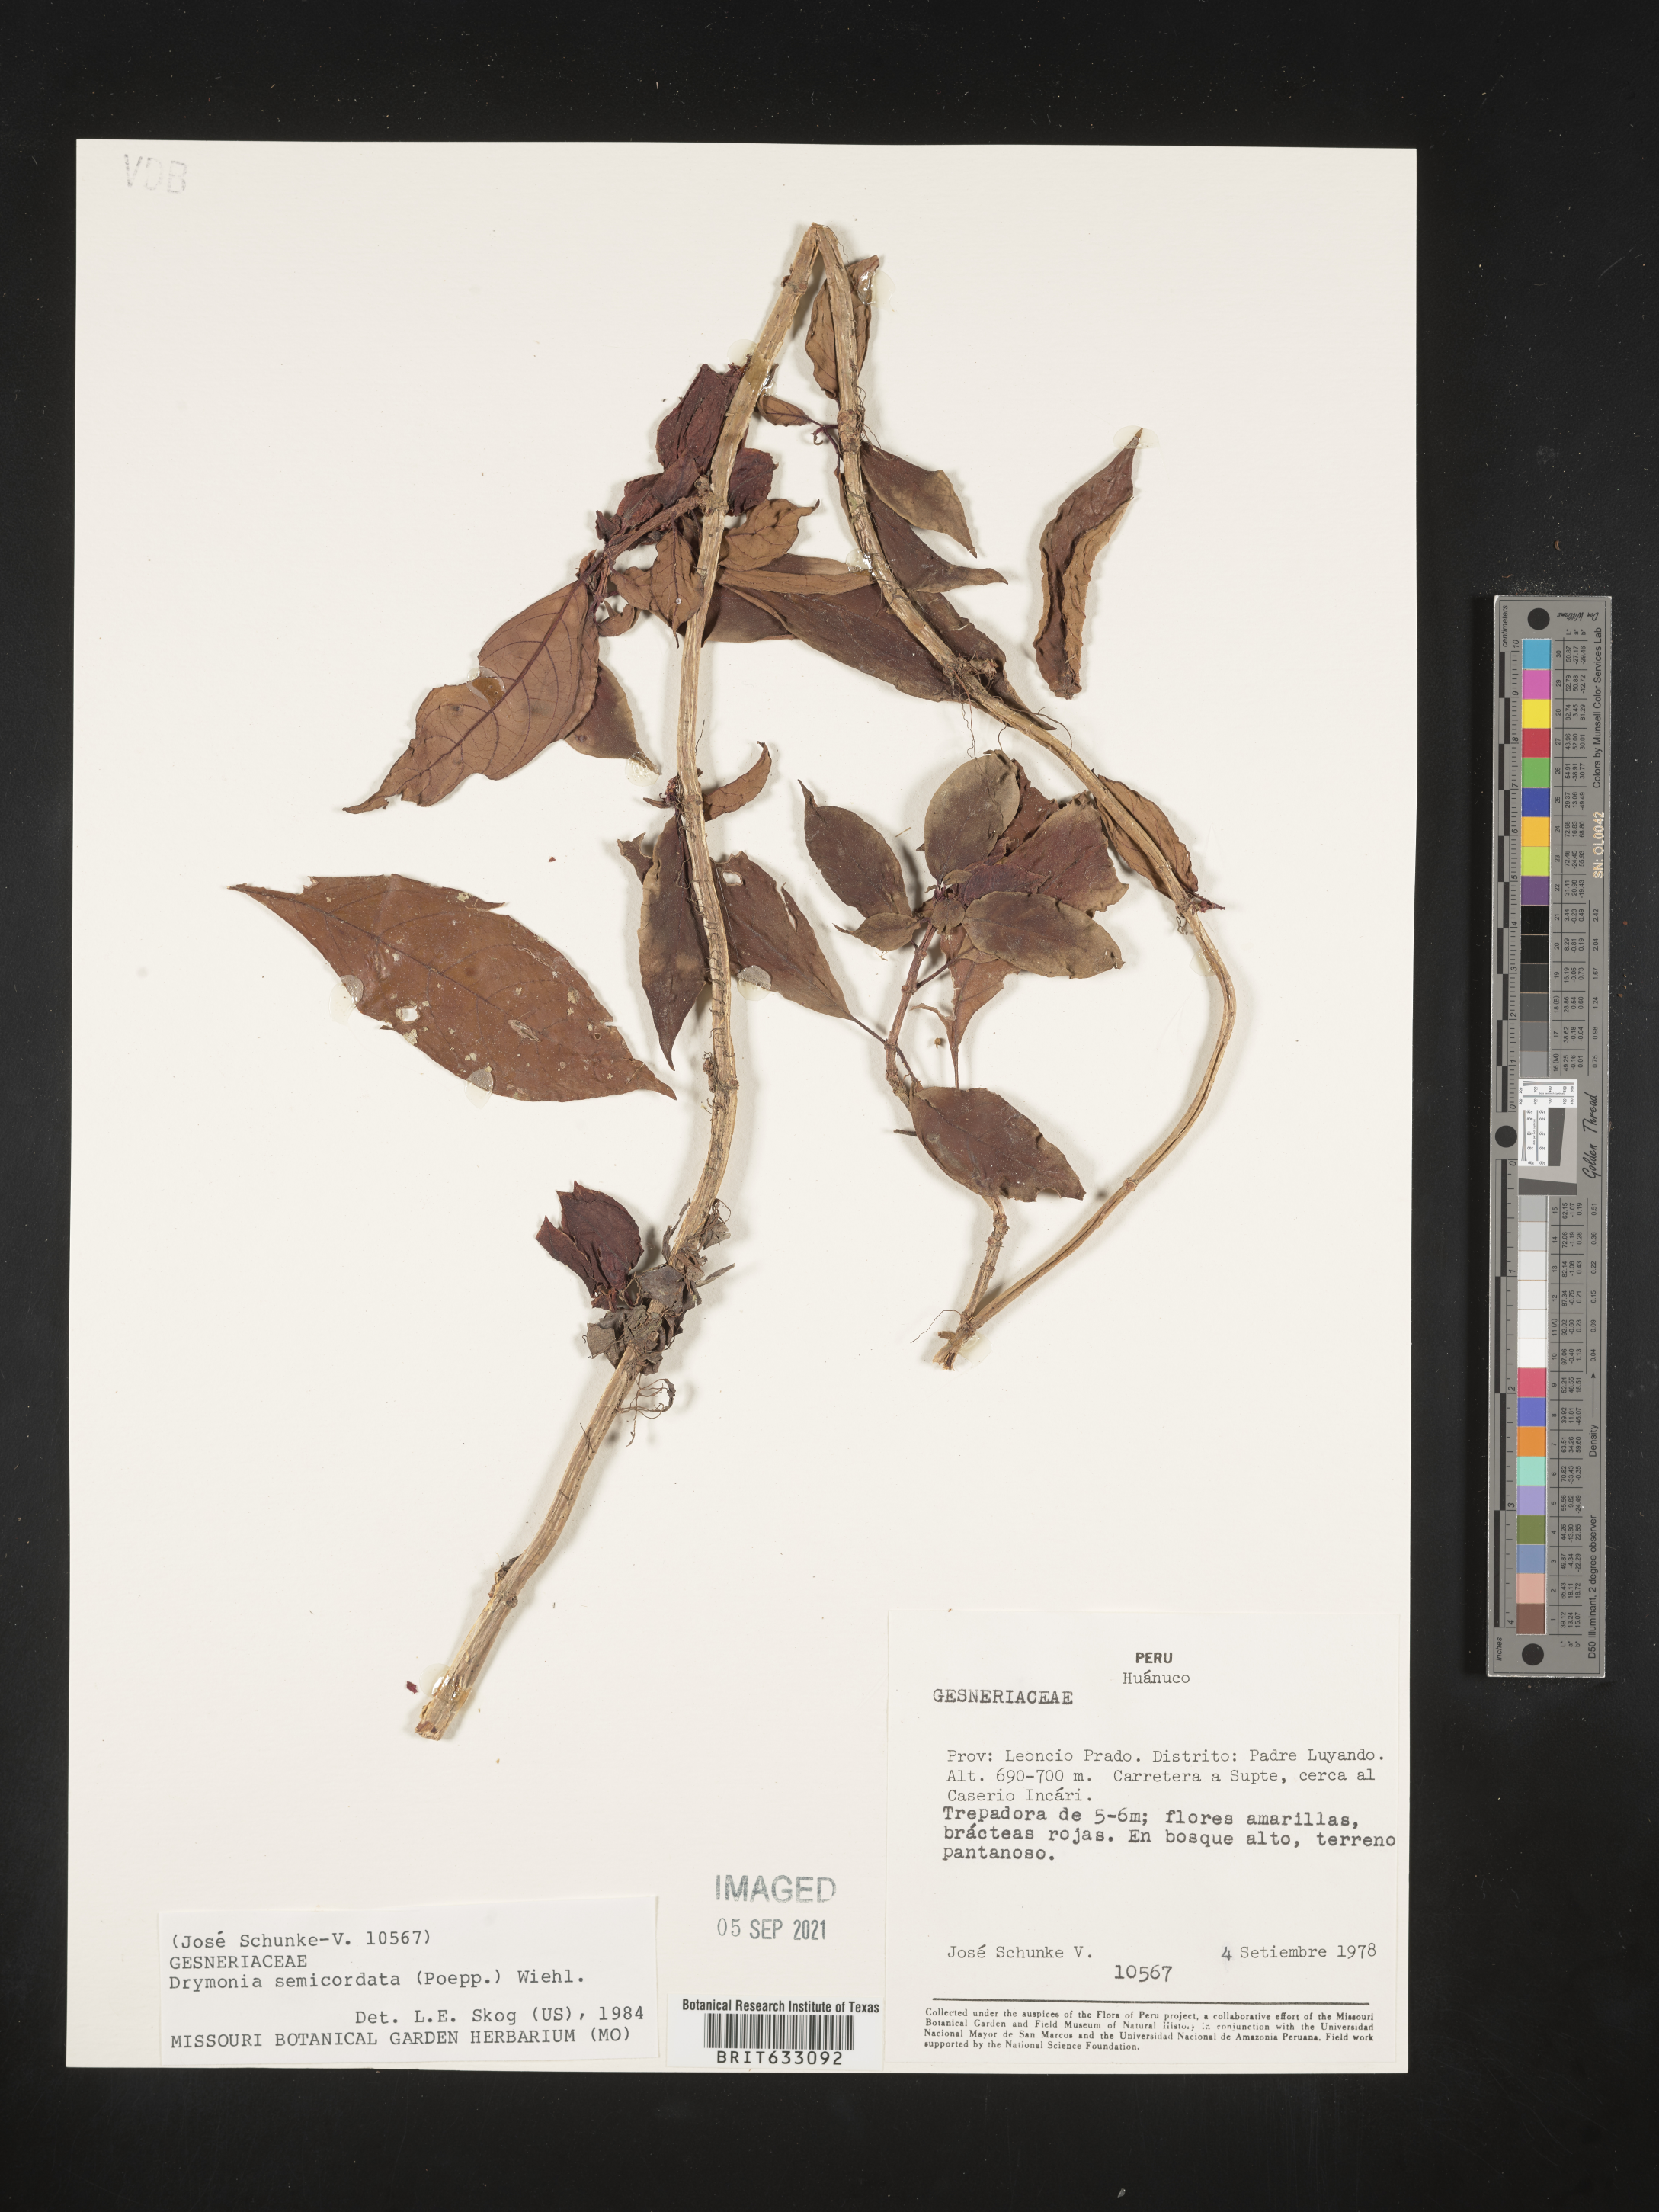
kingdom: Plantae
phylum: Tracheophyta
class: Magnoliopsida
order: Lamiales
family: Gesneriaceae
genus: Drymonia
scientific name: Drymonia
